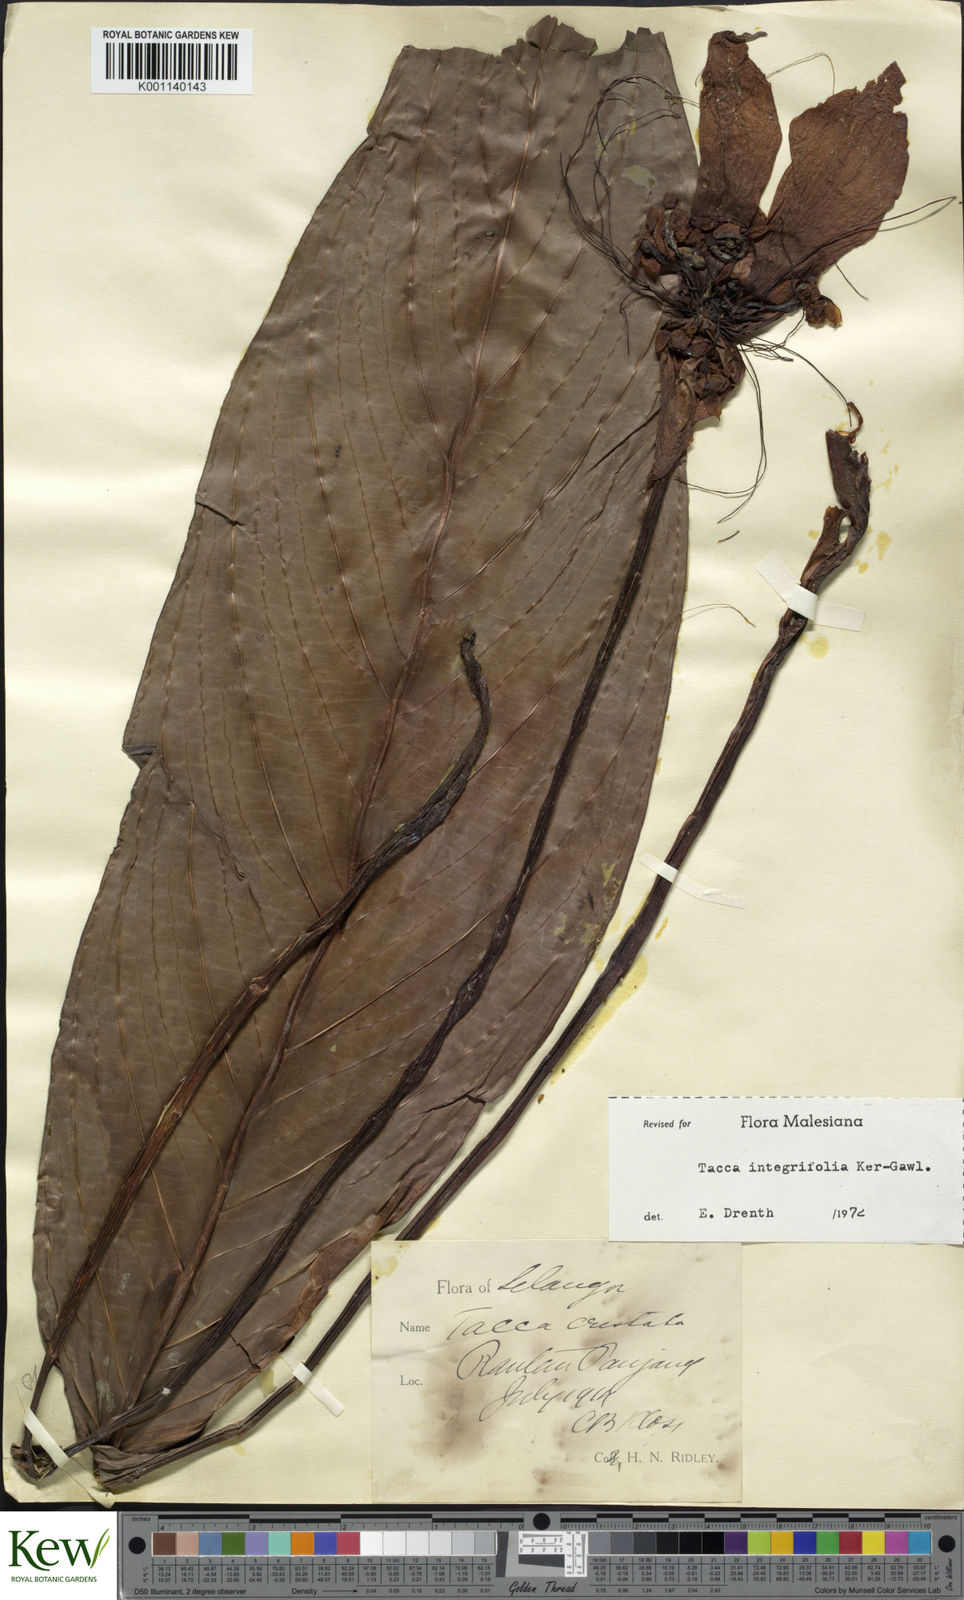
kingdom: Plantae
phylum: Tracheophyta
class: Liliopsida
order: Dioscoreales
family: Dioscoreaceae
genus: Tacca
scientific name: Tacca integrifolia
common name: Batplant
